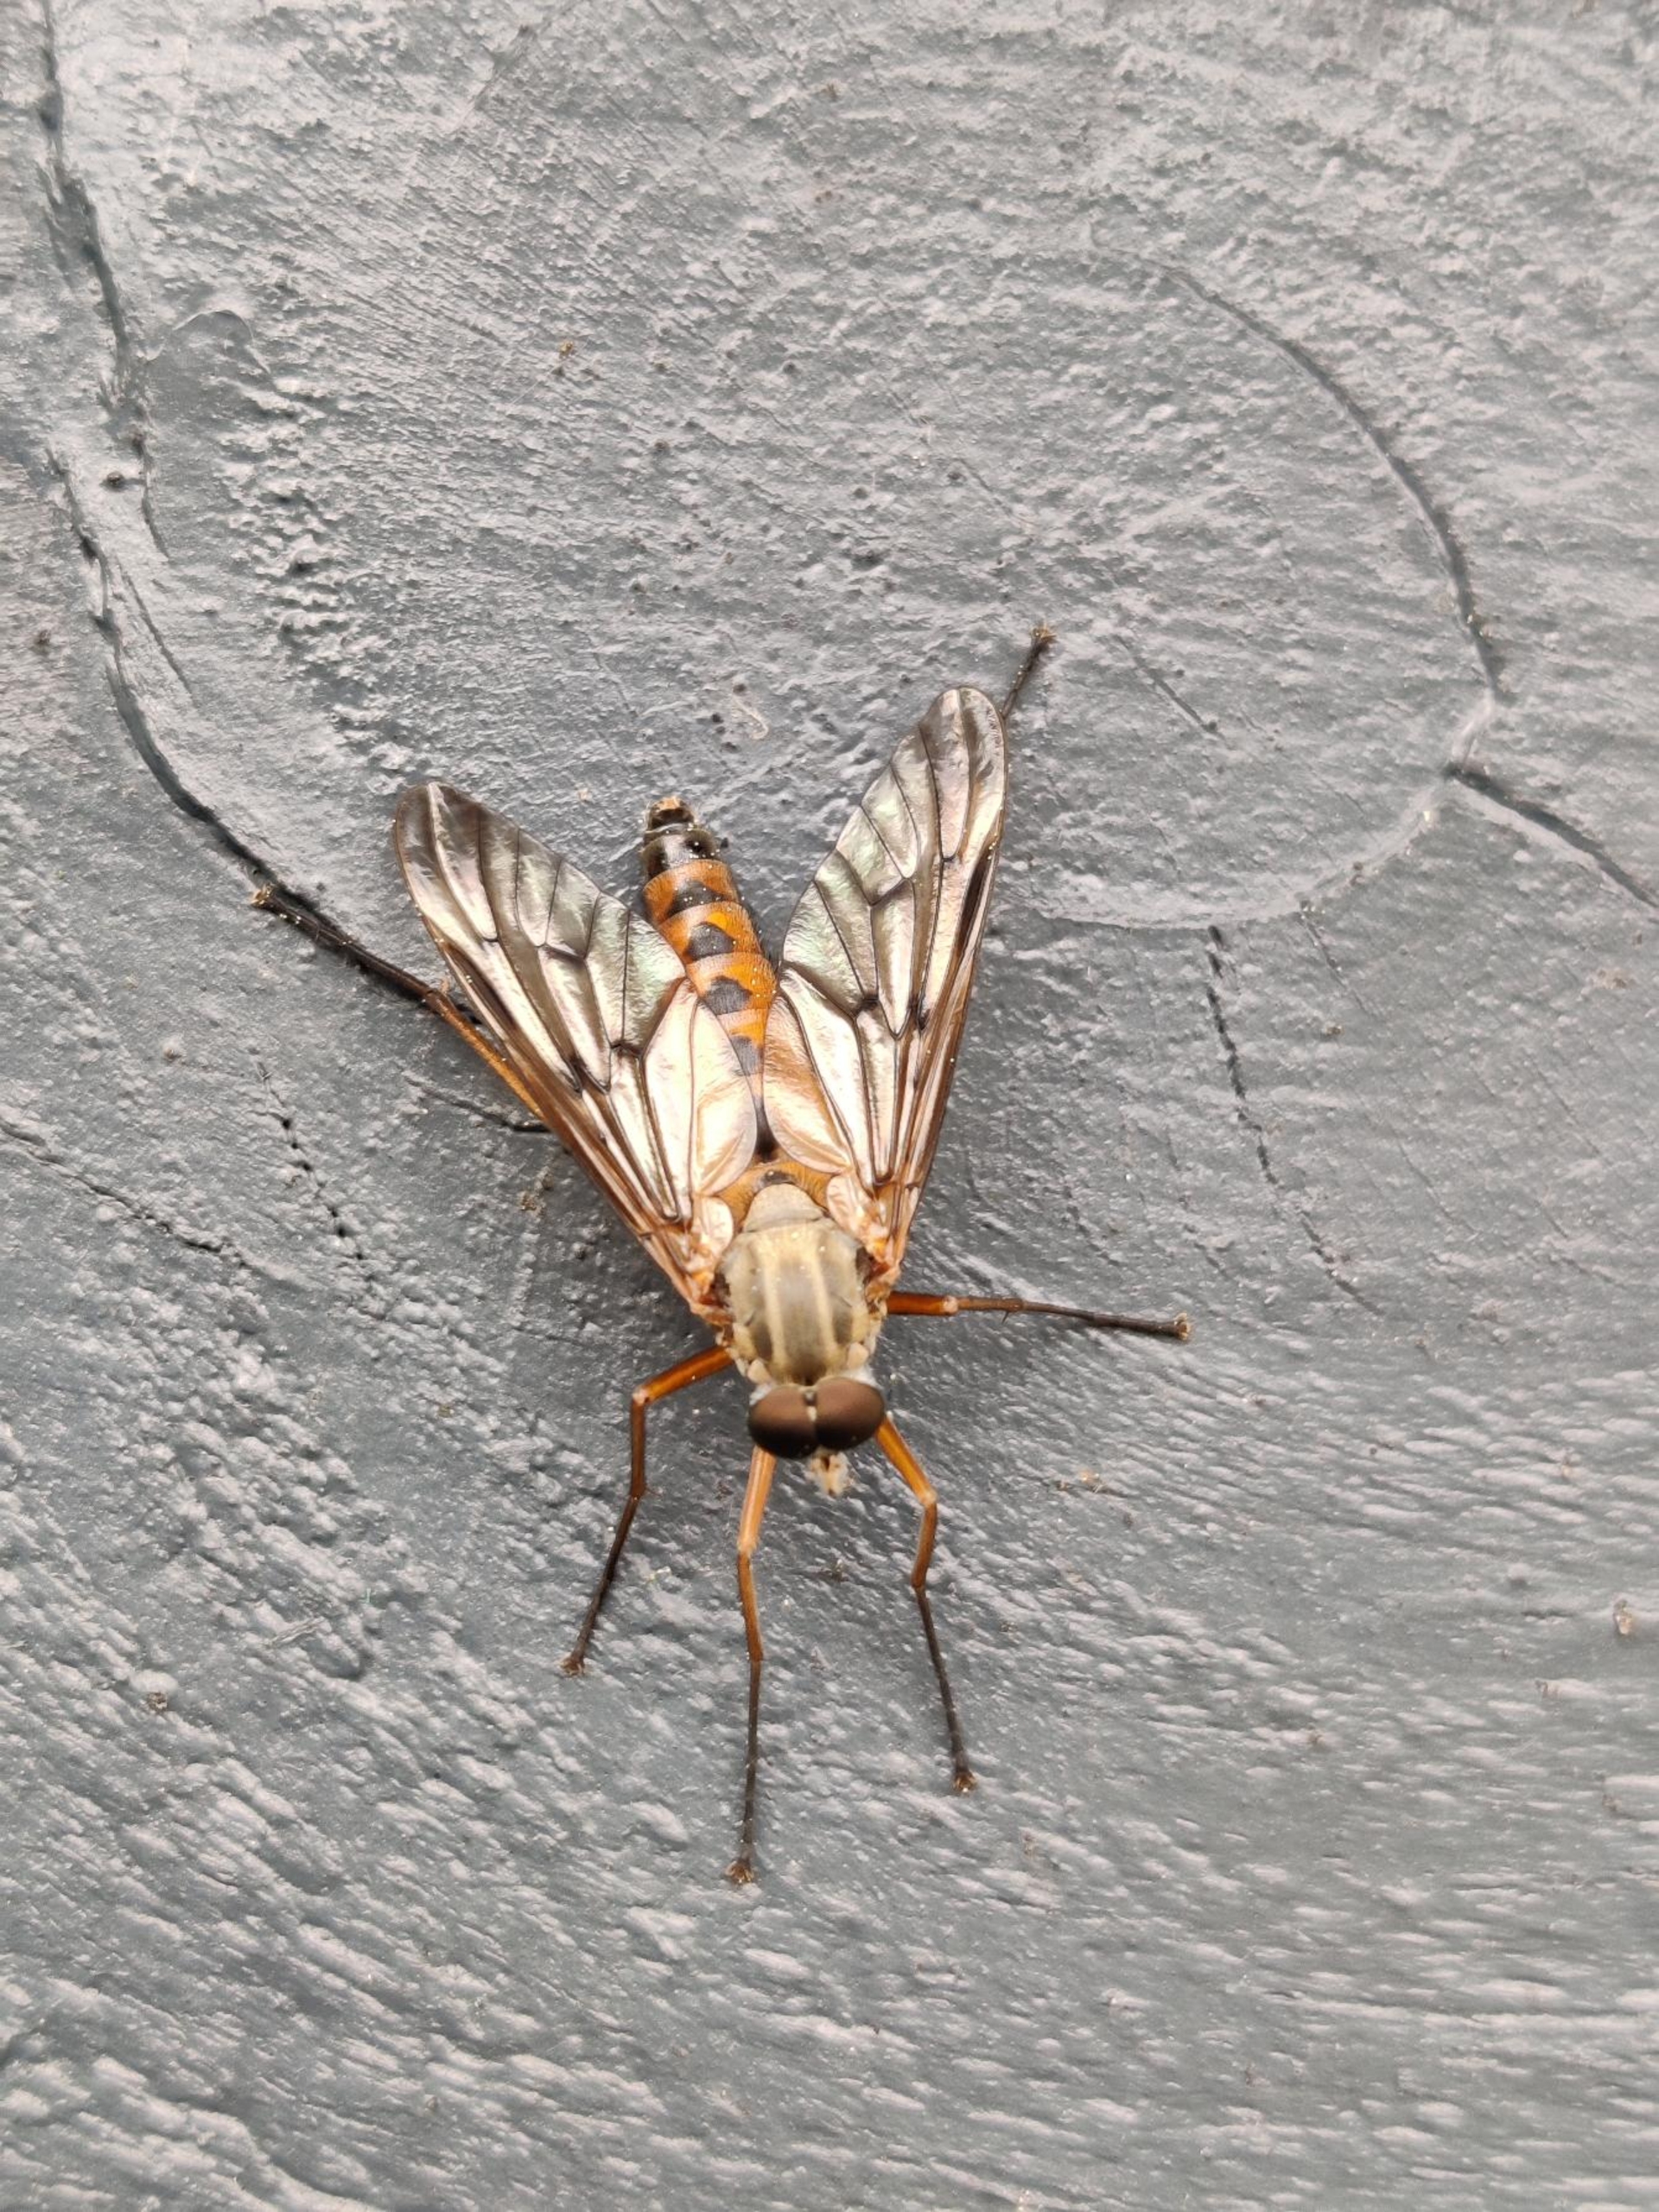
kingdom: Animalia
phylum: Arthropoda
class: Insecta
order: Diptera
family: Rhagionidae
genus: Rhagio
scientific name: Rhagio scolopacea
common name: Almindelig sneppeflue
